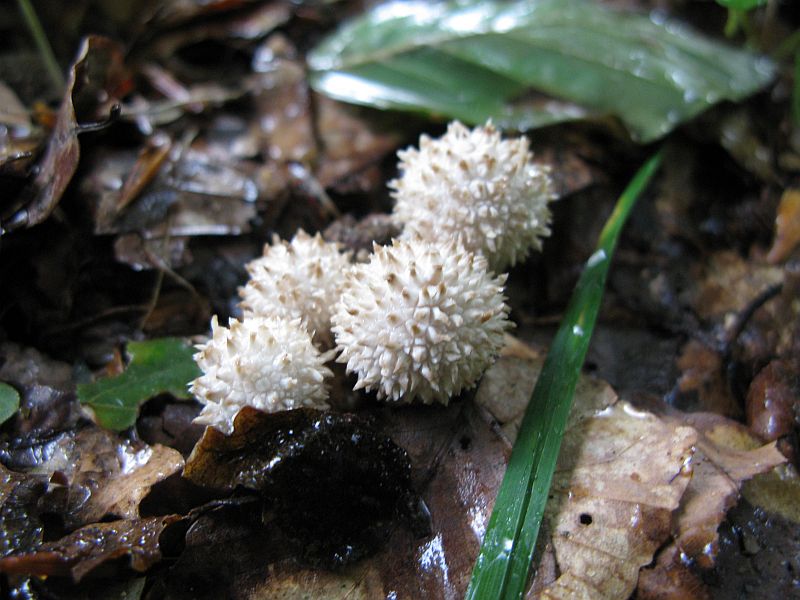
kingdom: Fungi
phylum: Basidiomycota
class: Agaricomycetes
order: Agaricales
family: Lycoperdaceae
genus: Lycoperdon
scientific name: Lycoperdon perlatum
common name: krystal-støvbold
